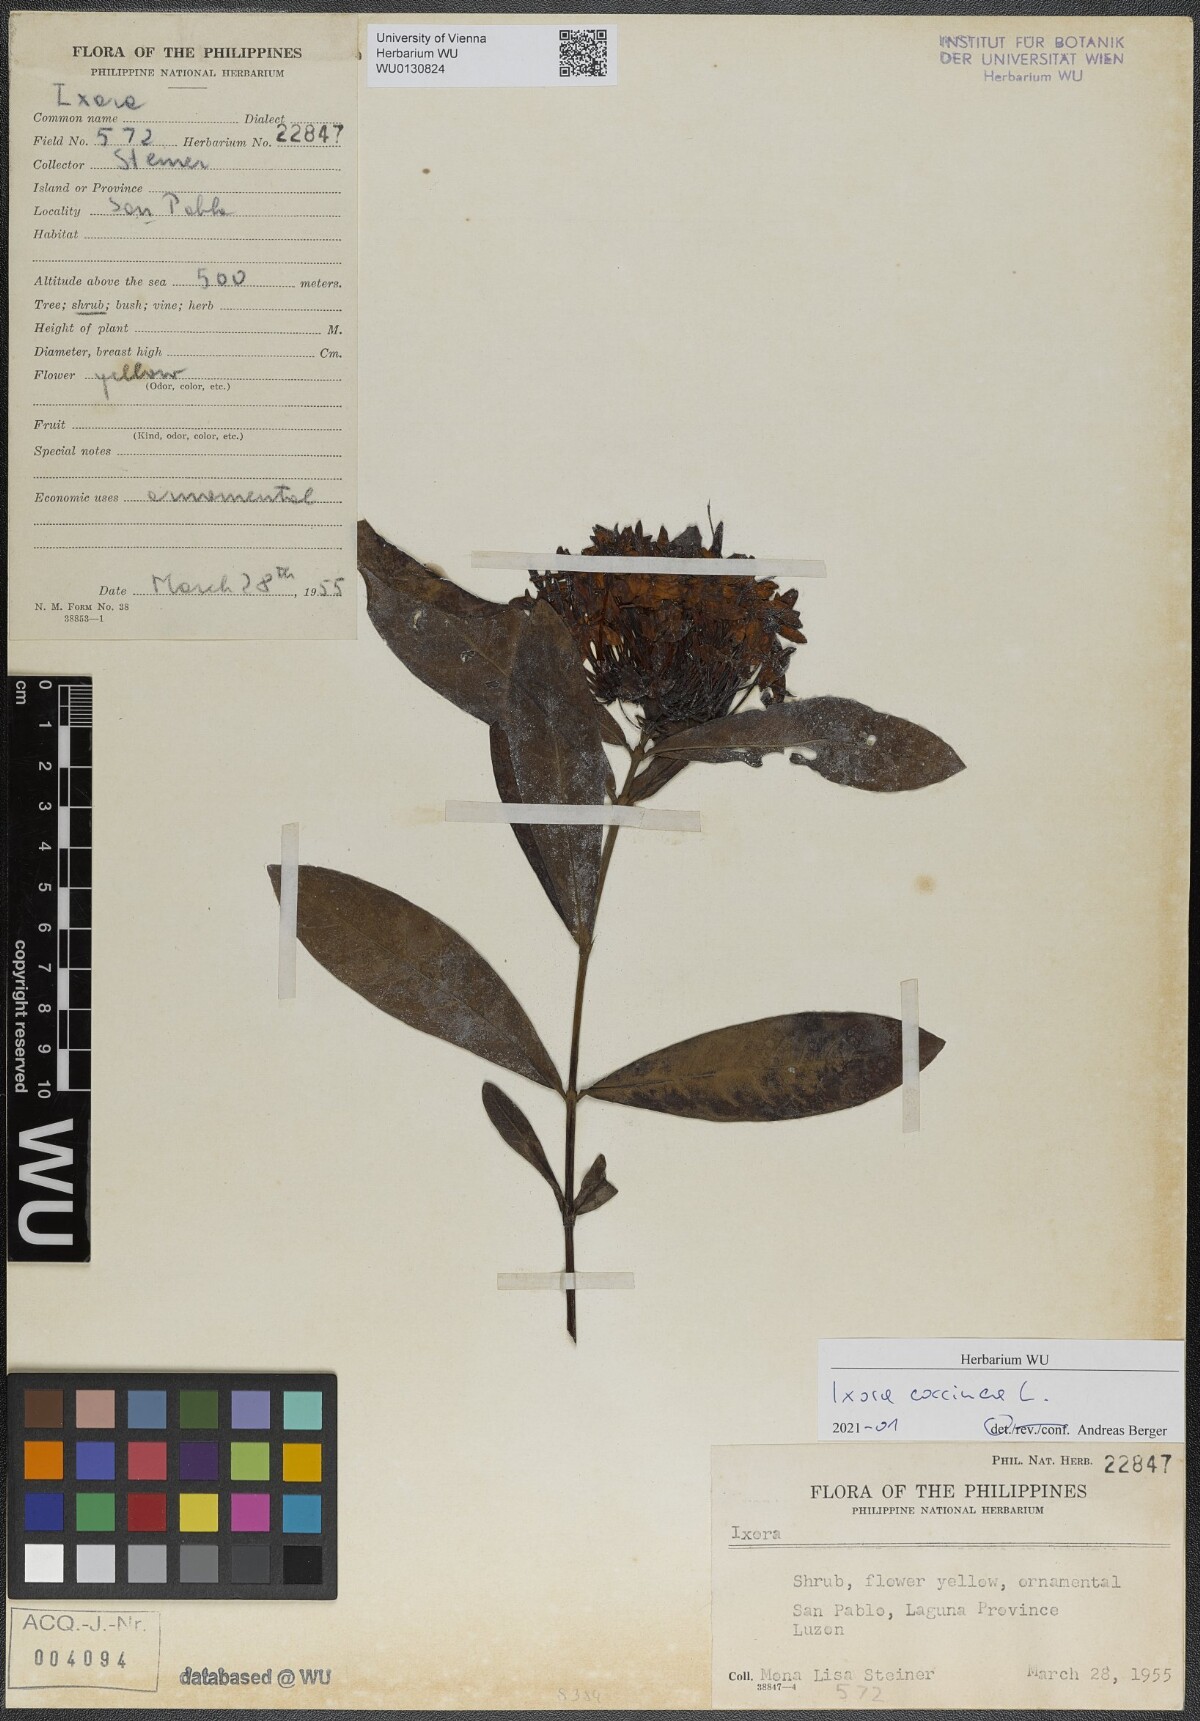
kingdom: Plantae
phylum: Tracheophyta
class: Magnoliopsida
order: Gentianales
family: Rubiaceae
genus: Ixora
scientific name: Ixora coccinea
